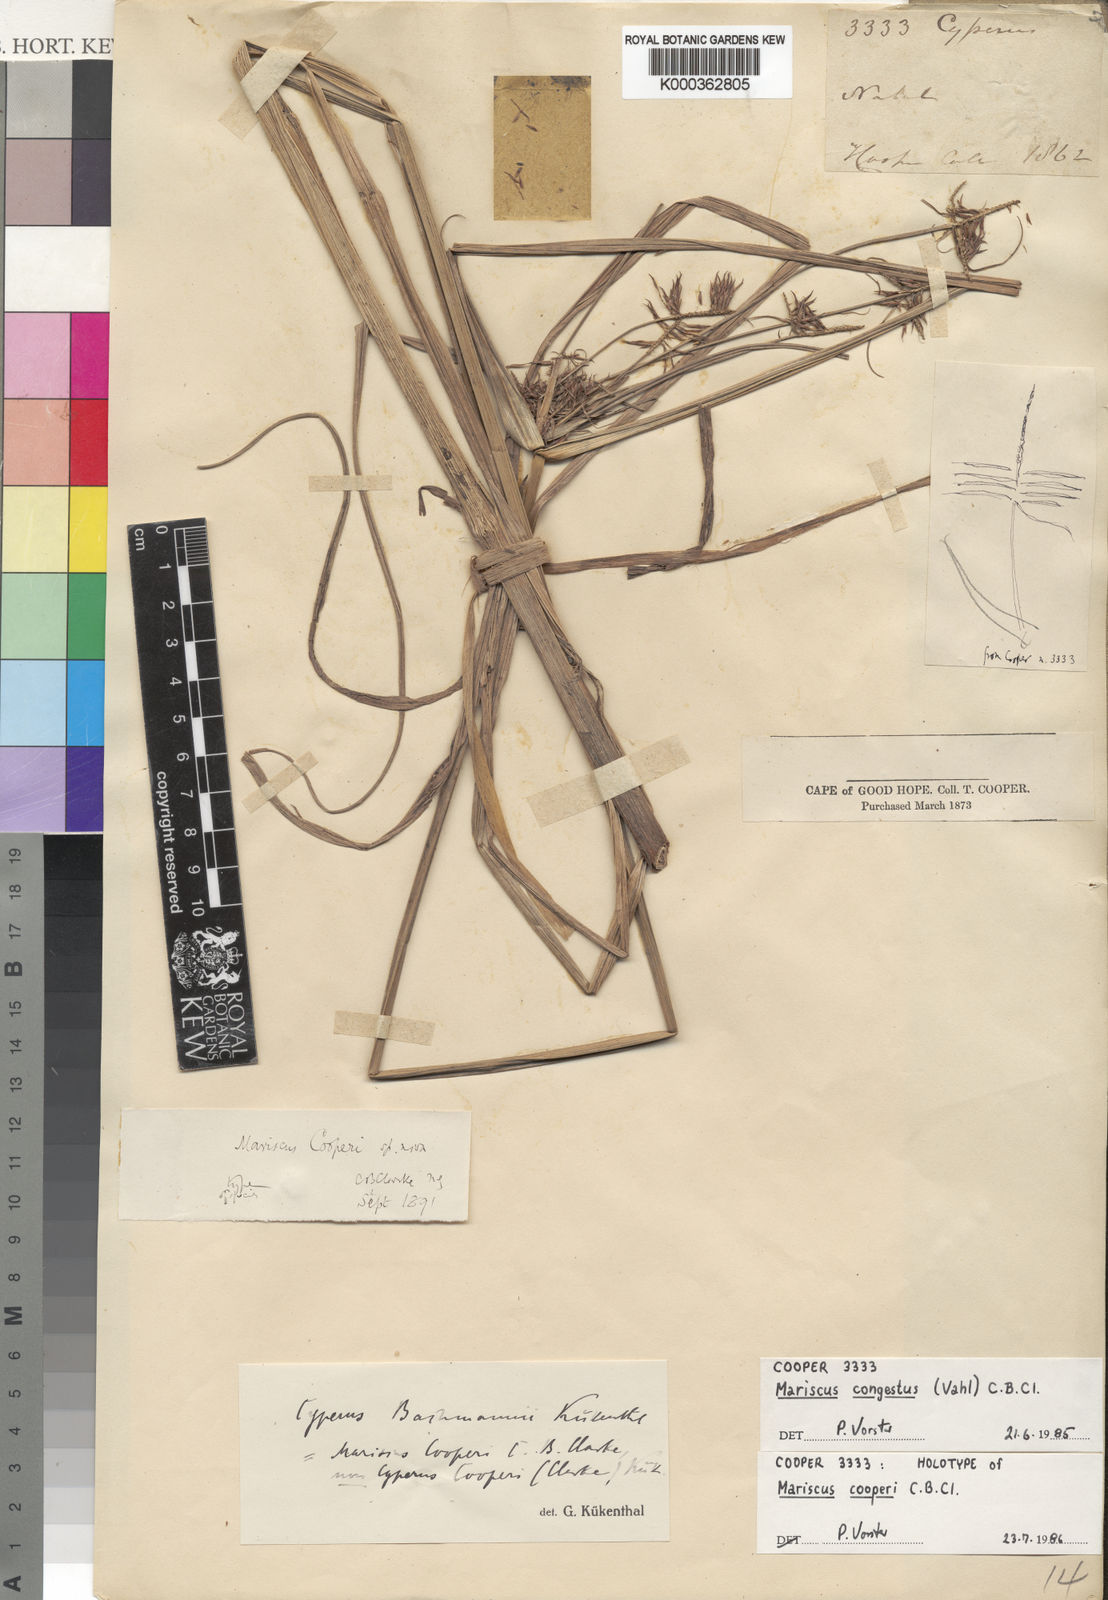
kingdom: Plantae
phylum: Tracheophyta
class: Liliopsida
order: Poales
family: Cyperaceae
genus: Cyperus
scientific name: Cyperus congestus
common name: Dense flat sedge
